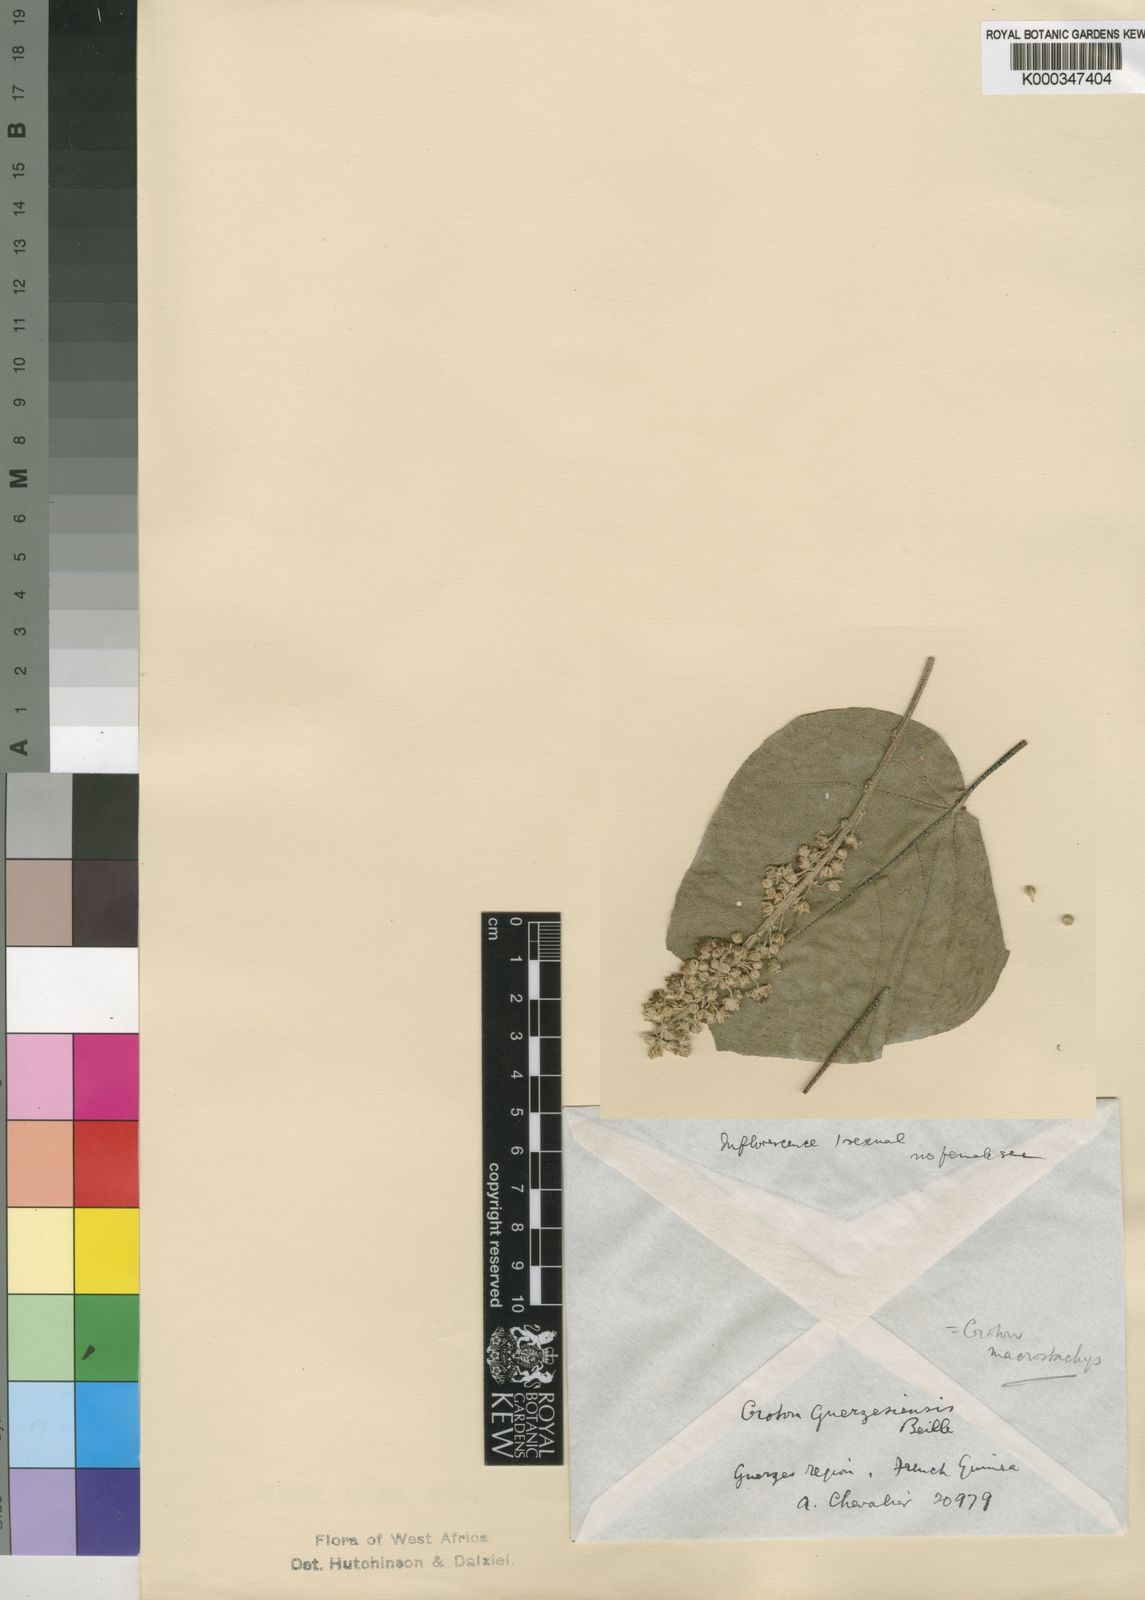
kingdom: Plantae
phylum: Tracheophyta
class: Magnoliopsida
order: Malpighiales
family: Euphorbiaceae
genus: Croton
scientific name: Croton macrostachyus
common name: Mutundu
